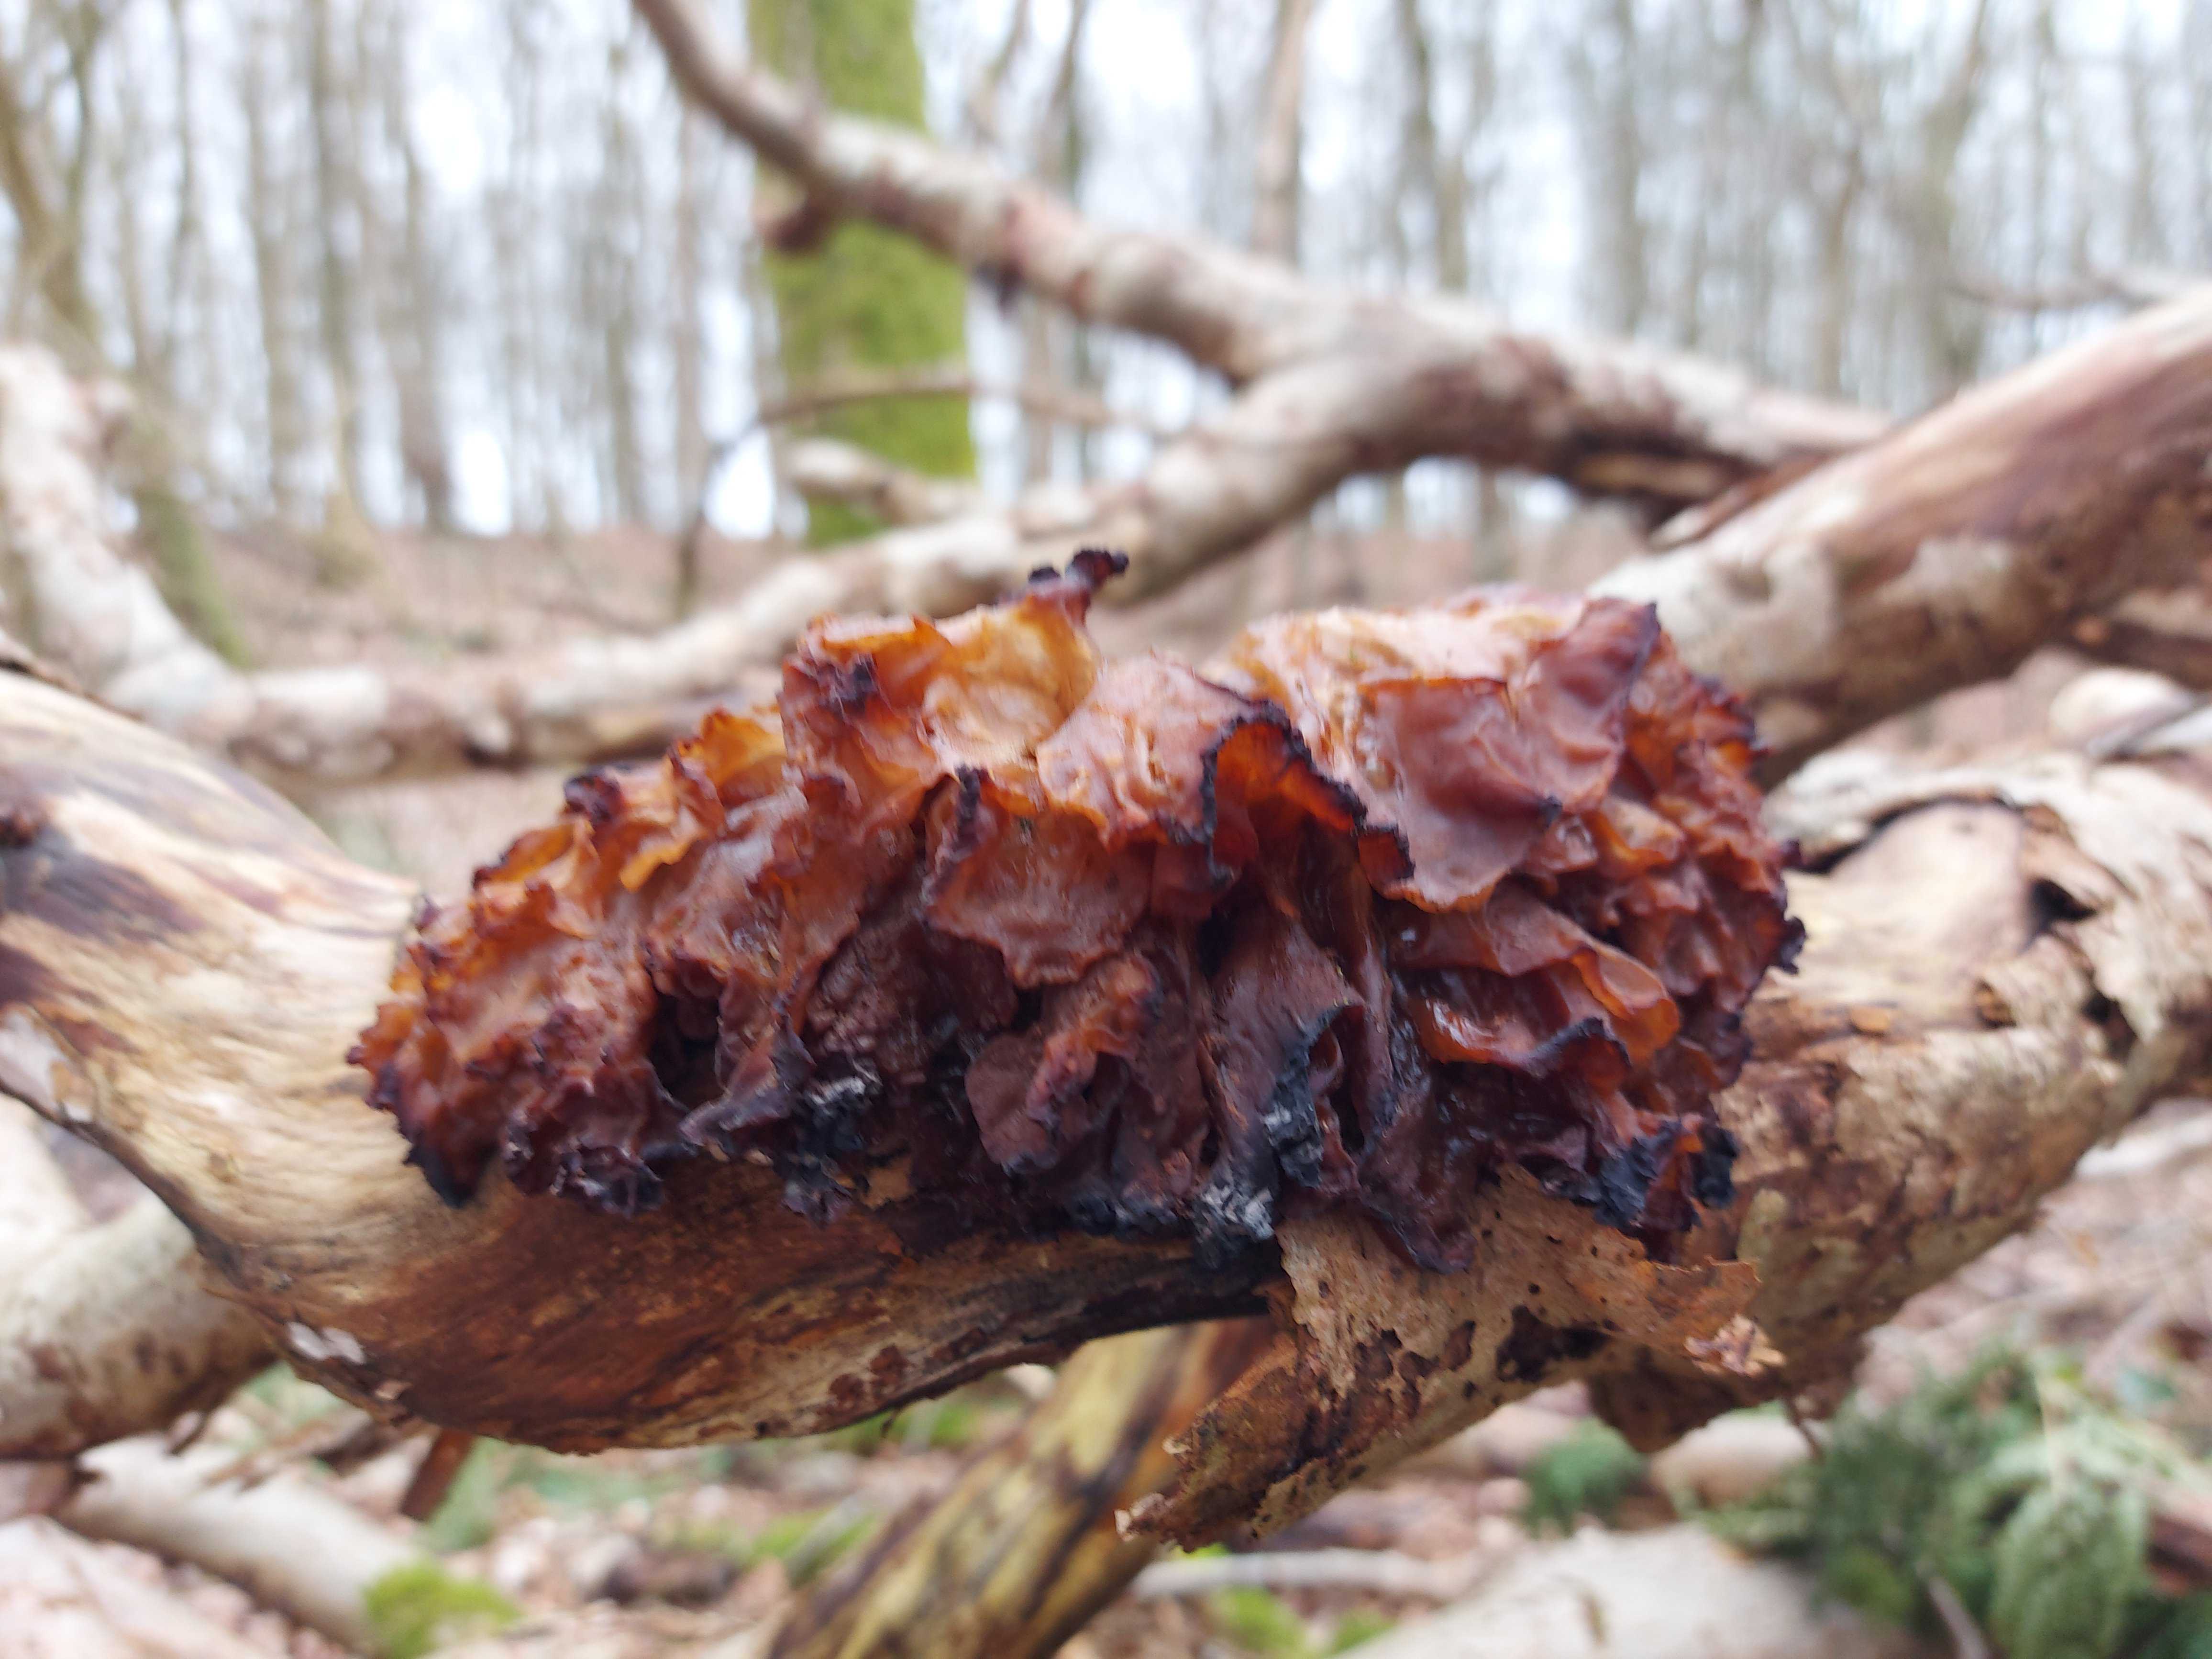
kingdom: Fungi
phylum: Basidiomycota
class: Tremellomycetes
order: Tremellales
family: Tremellaceae
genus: Phaeotremella
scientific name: Phaeotremella frondosa
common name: kæmpe-bævresvamp
